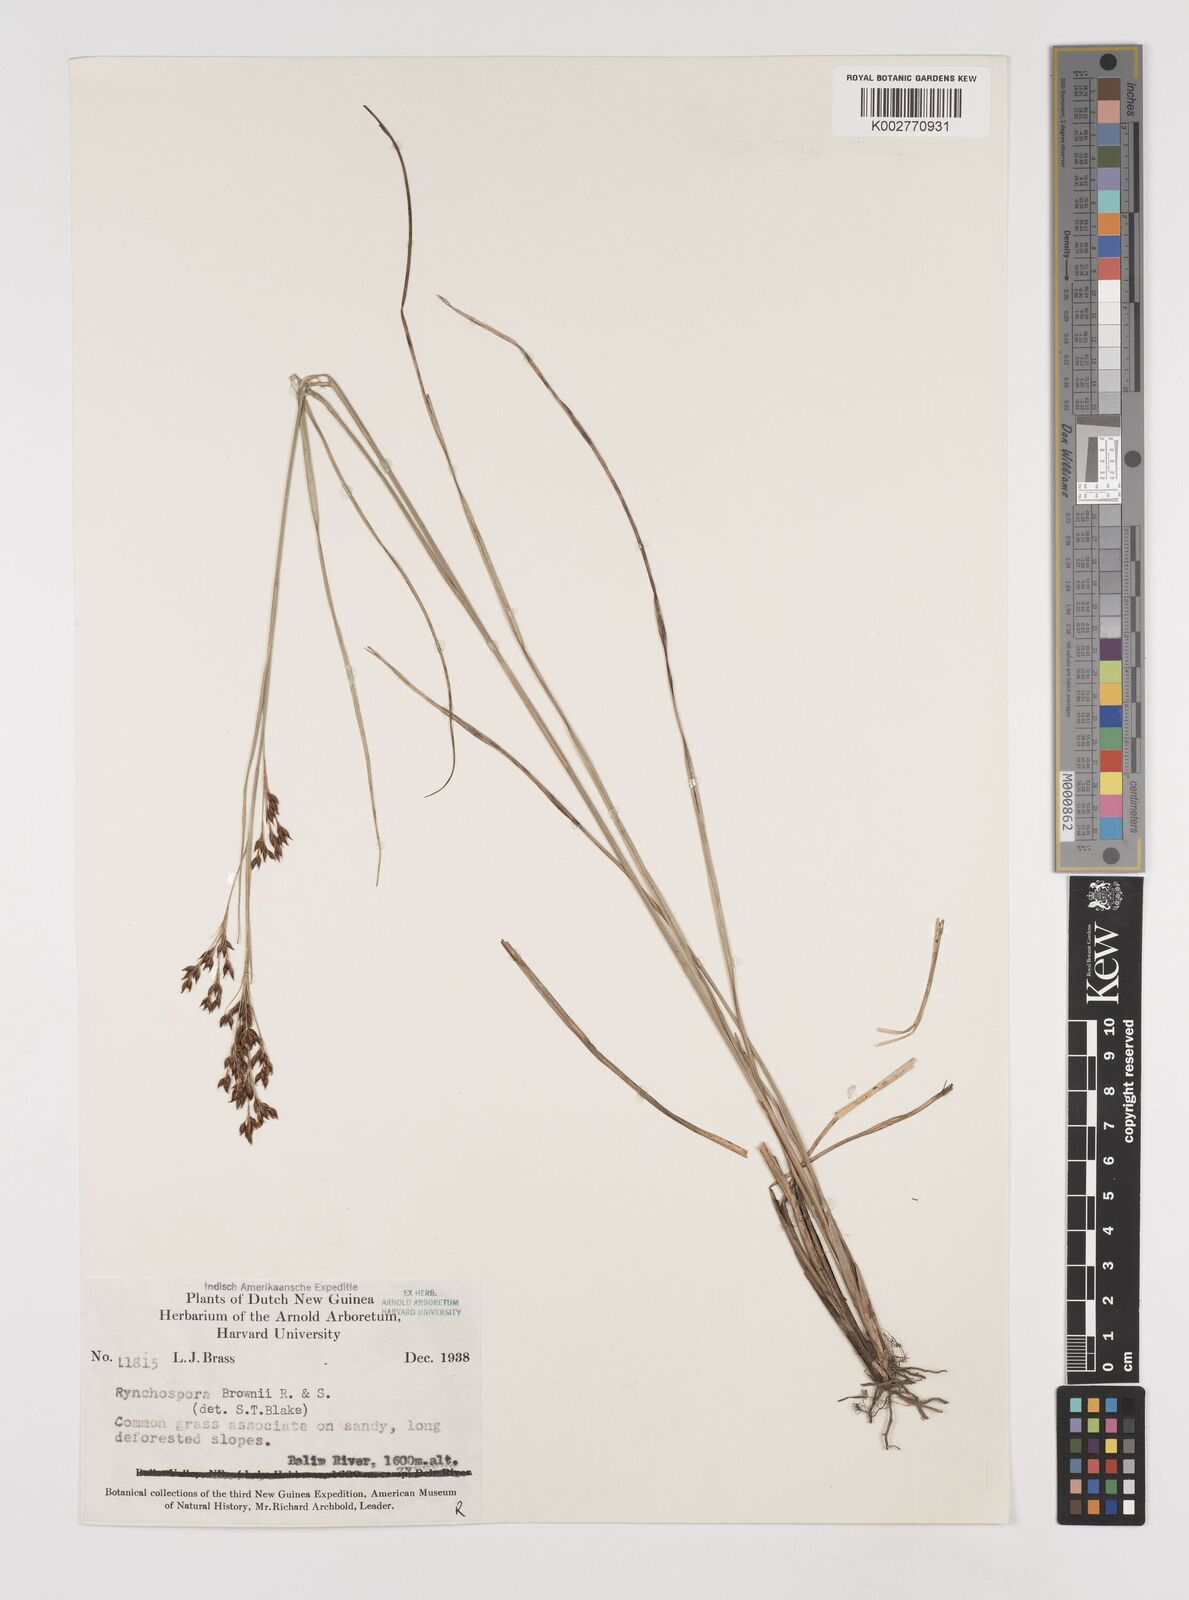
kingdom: Plantae
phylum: Tracheophyta
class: Liliopsida
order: Poales
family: Cyperaceae
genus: Rhynchospora
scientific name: Rhynchospora rugosa
